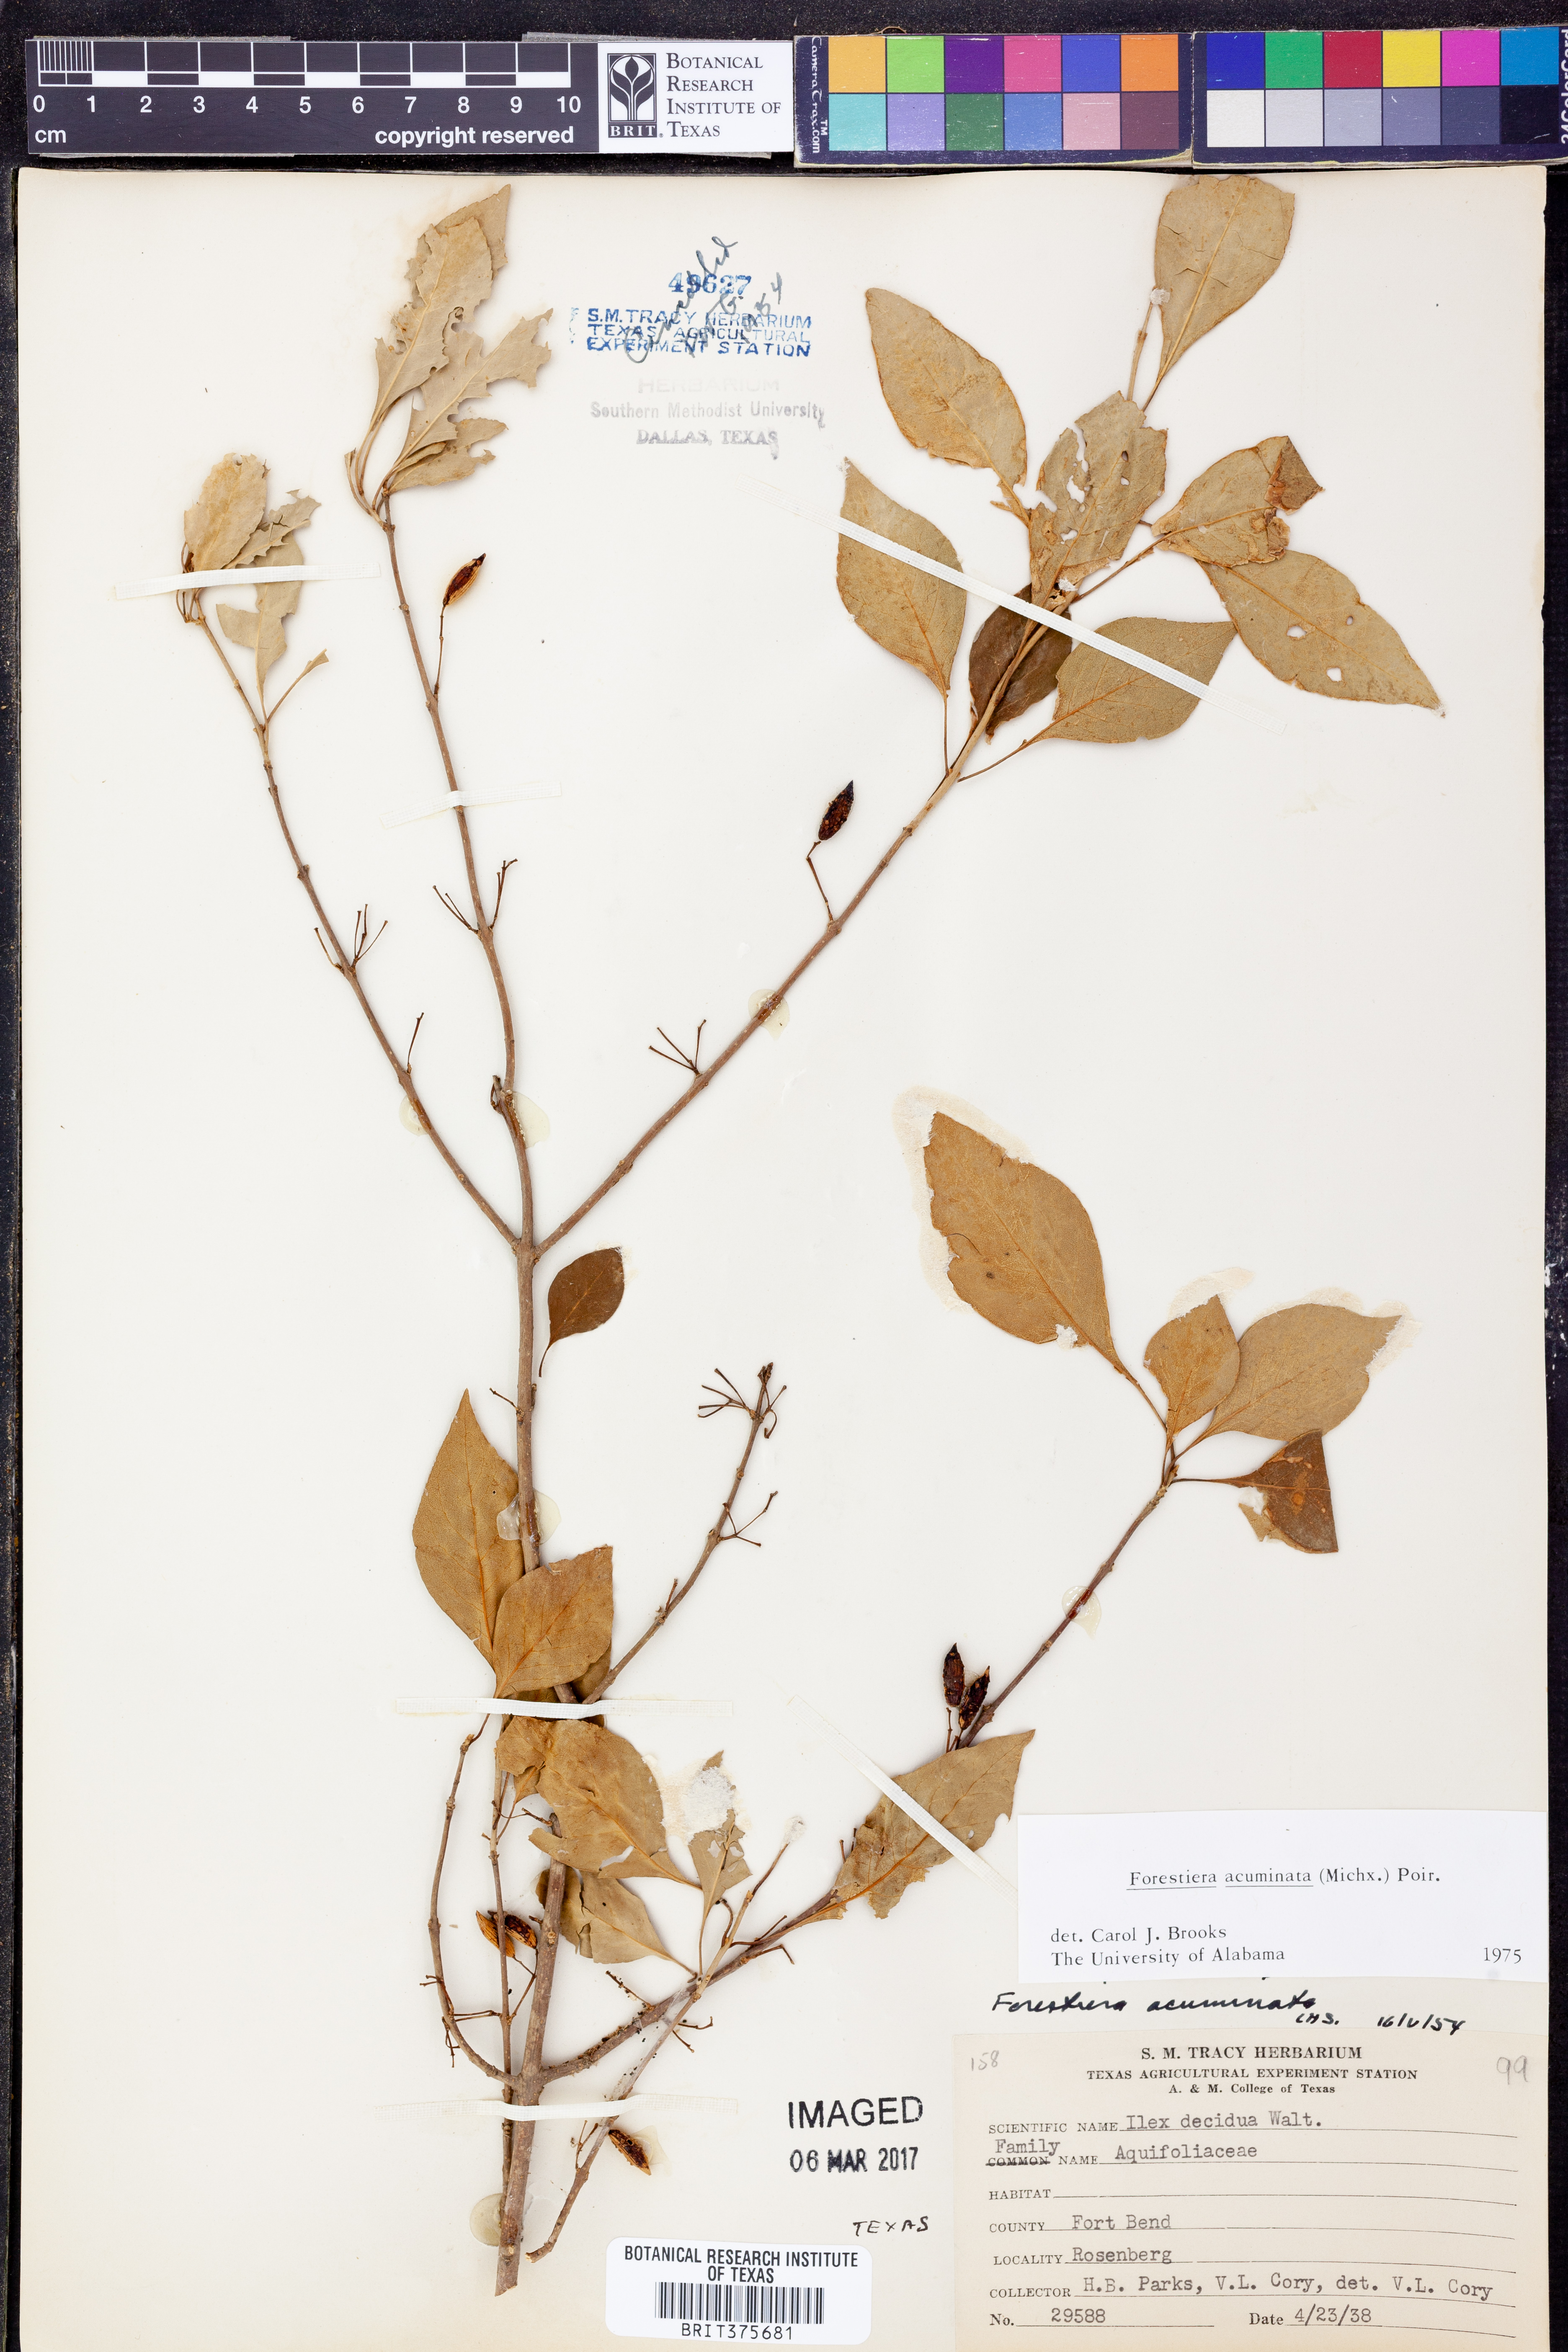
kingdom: Plantae
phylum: Tracheophyta
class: Magnoliopsida
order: Lamiales
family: Oleaceae
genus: Forestiera
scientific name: Forestiera acuminata
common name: Swamp-privet
